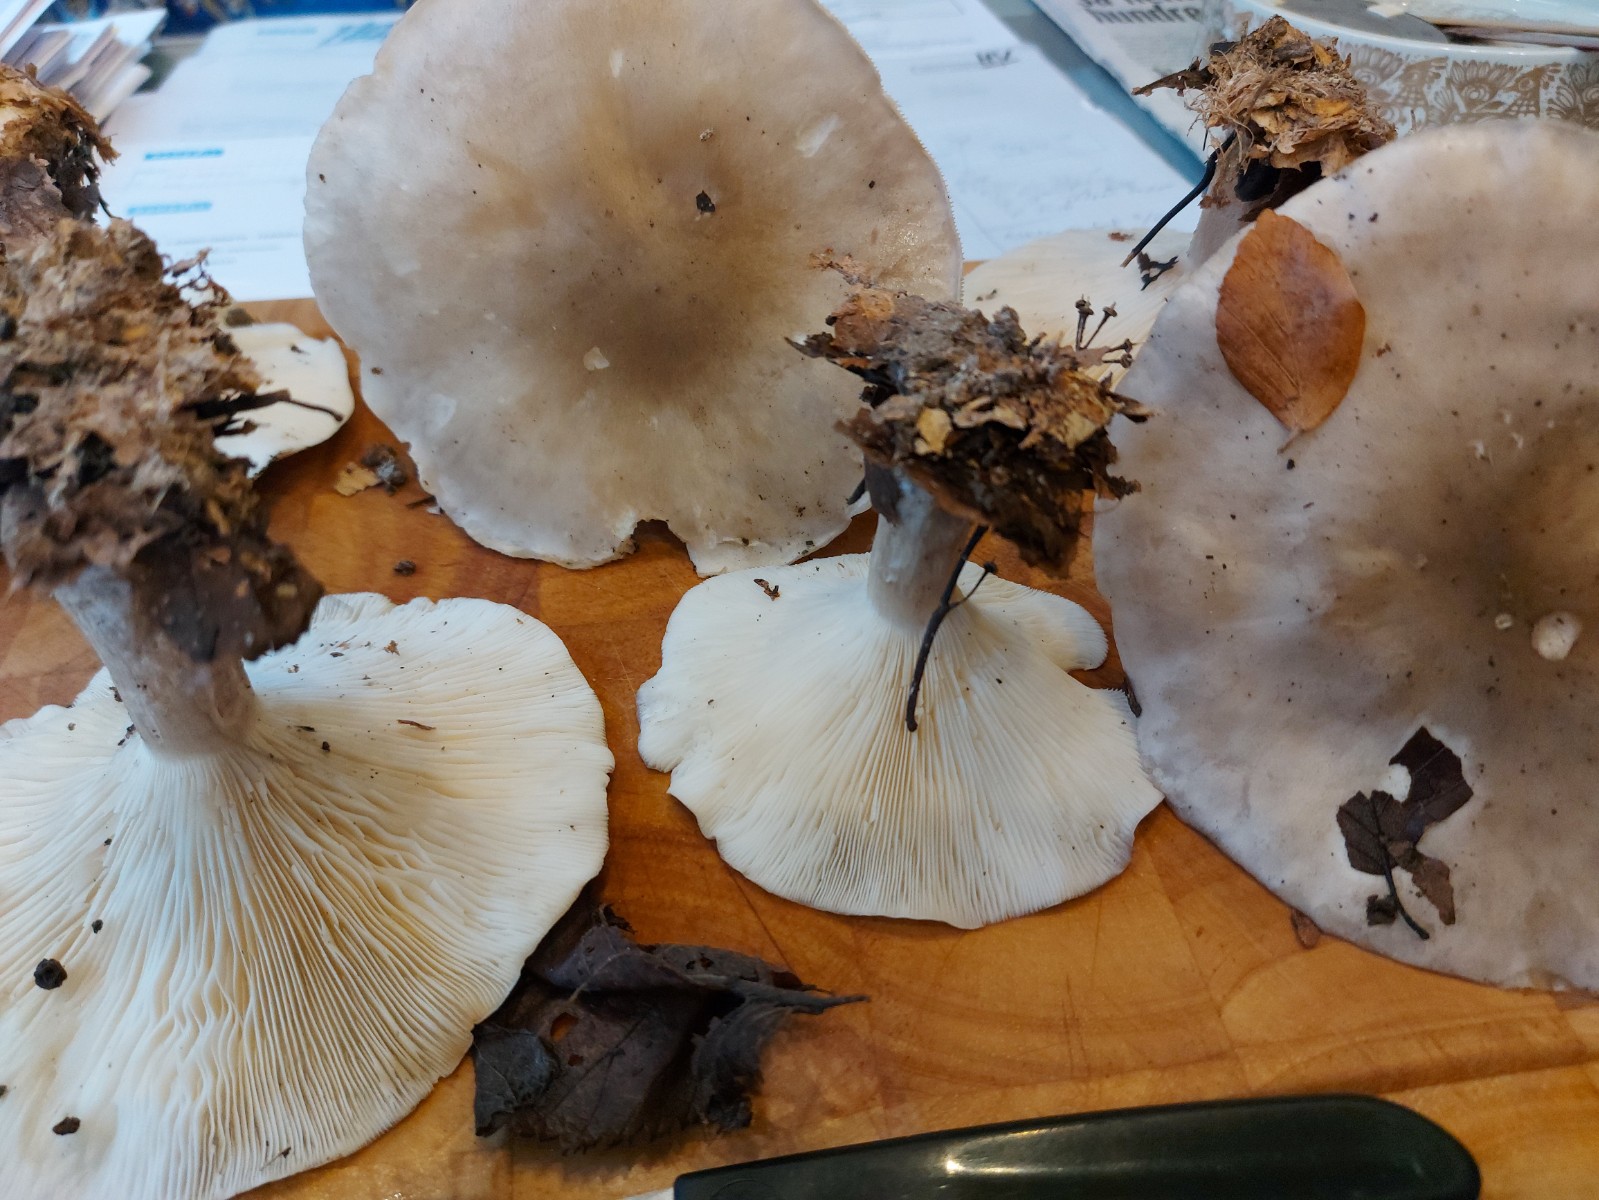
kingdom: Fungi
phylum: Basidiomycota
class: Agaricomycetes
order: Agaricales
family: Tricholomataceae
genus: Clitocybe
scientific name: Clitocybe nebularis
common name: tåge-tragthat
